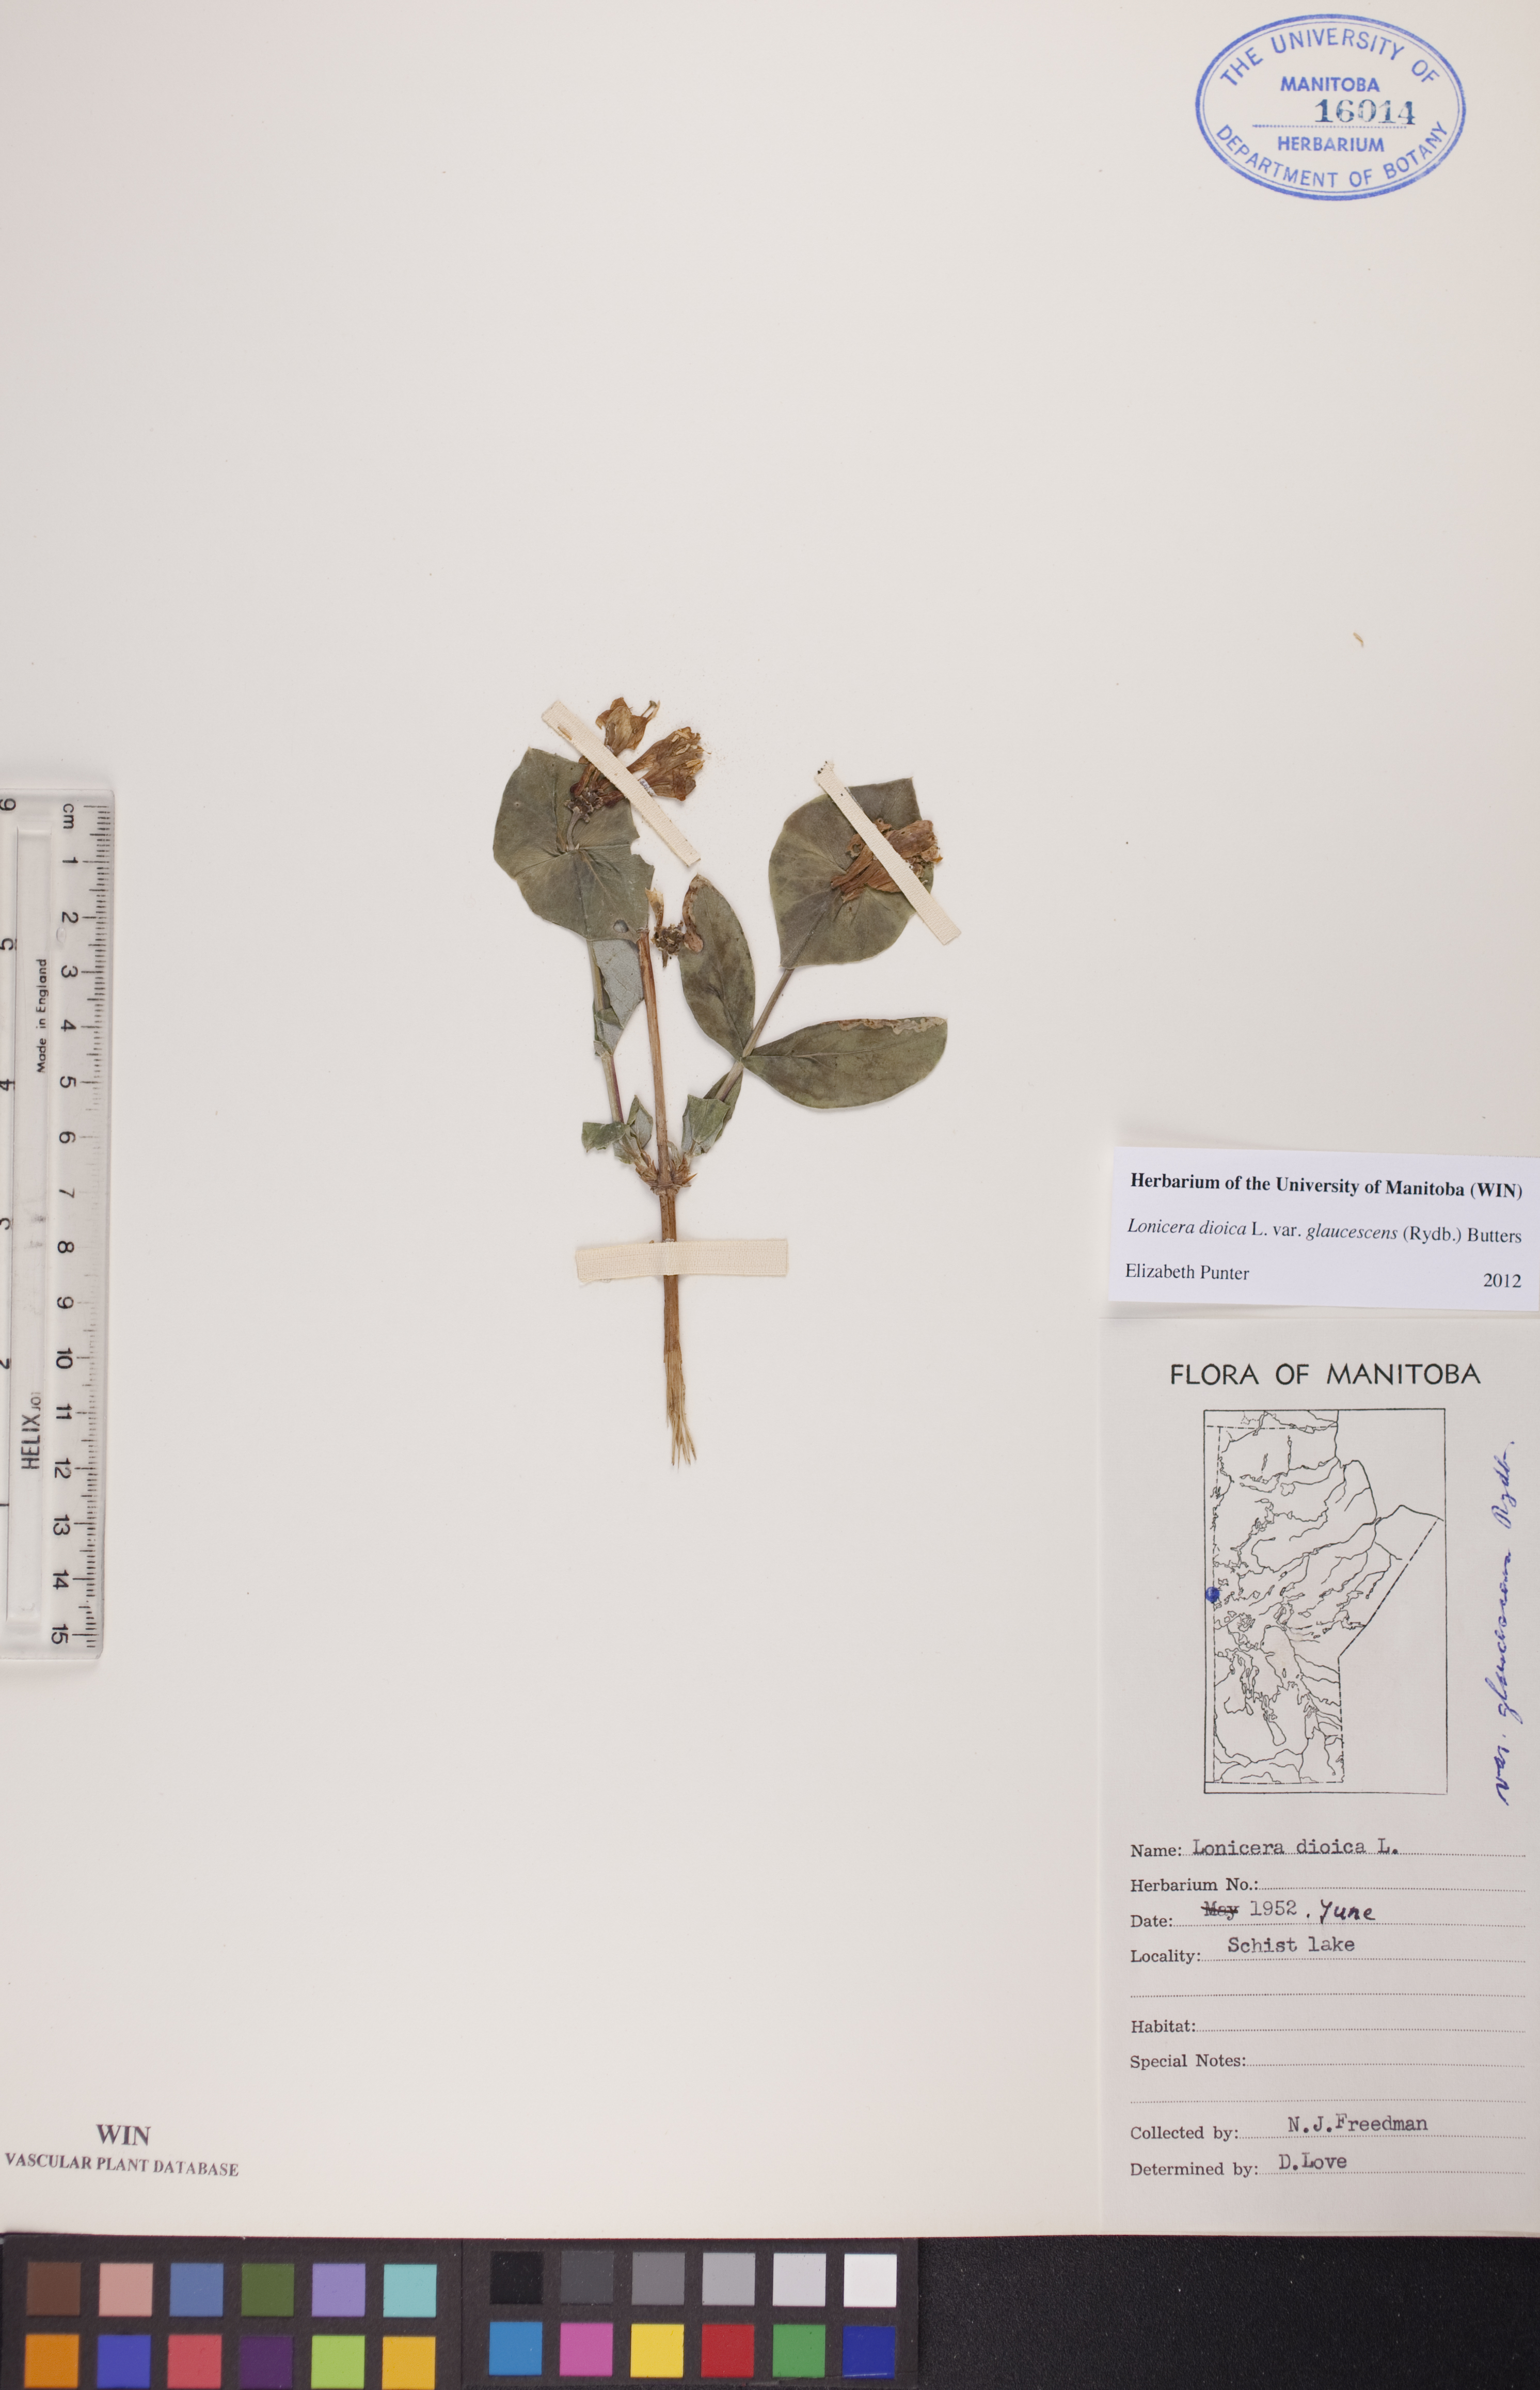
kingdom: Plantae
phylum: Tracheophyta
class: Magnoliopsida
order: Dipsacales
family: Caprifoliaceae
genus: Lonicera
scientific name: Lonicera dioica
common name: Limber honeysuckle
